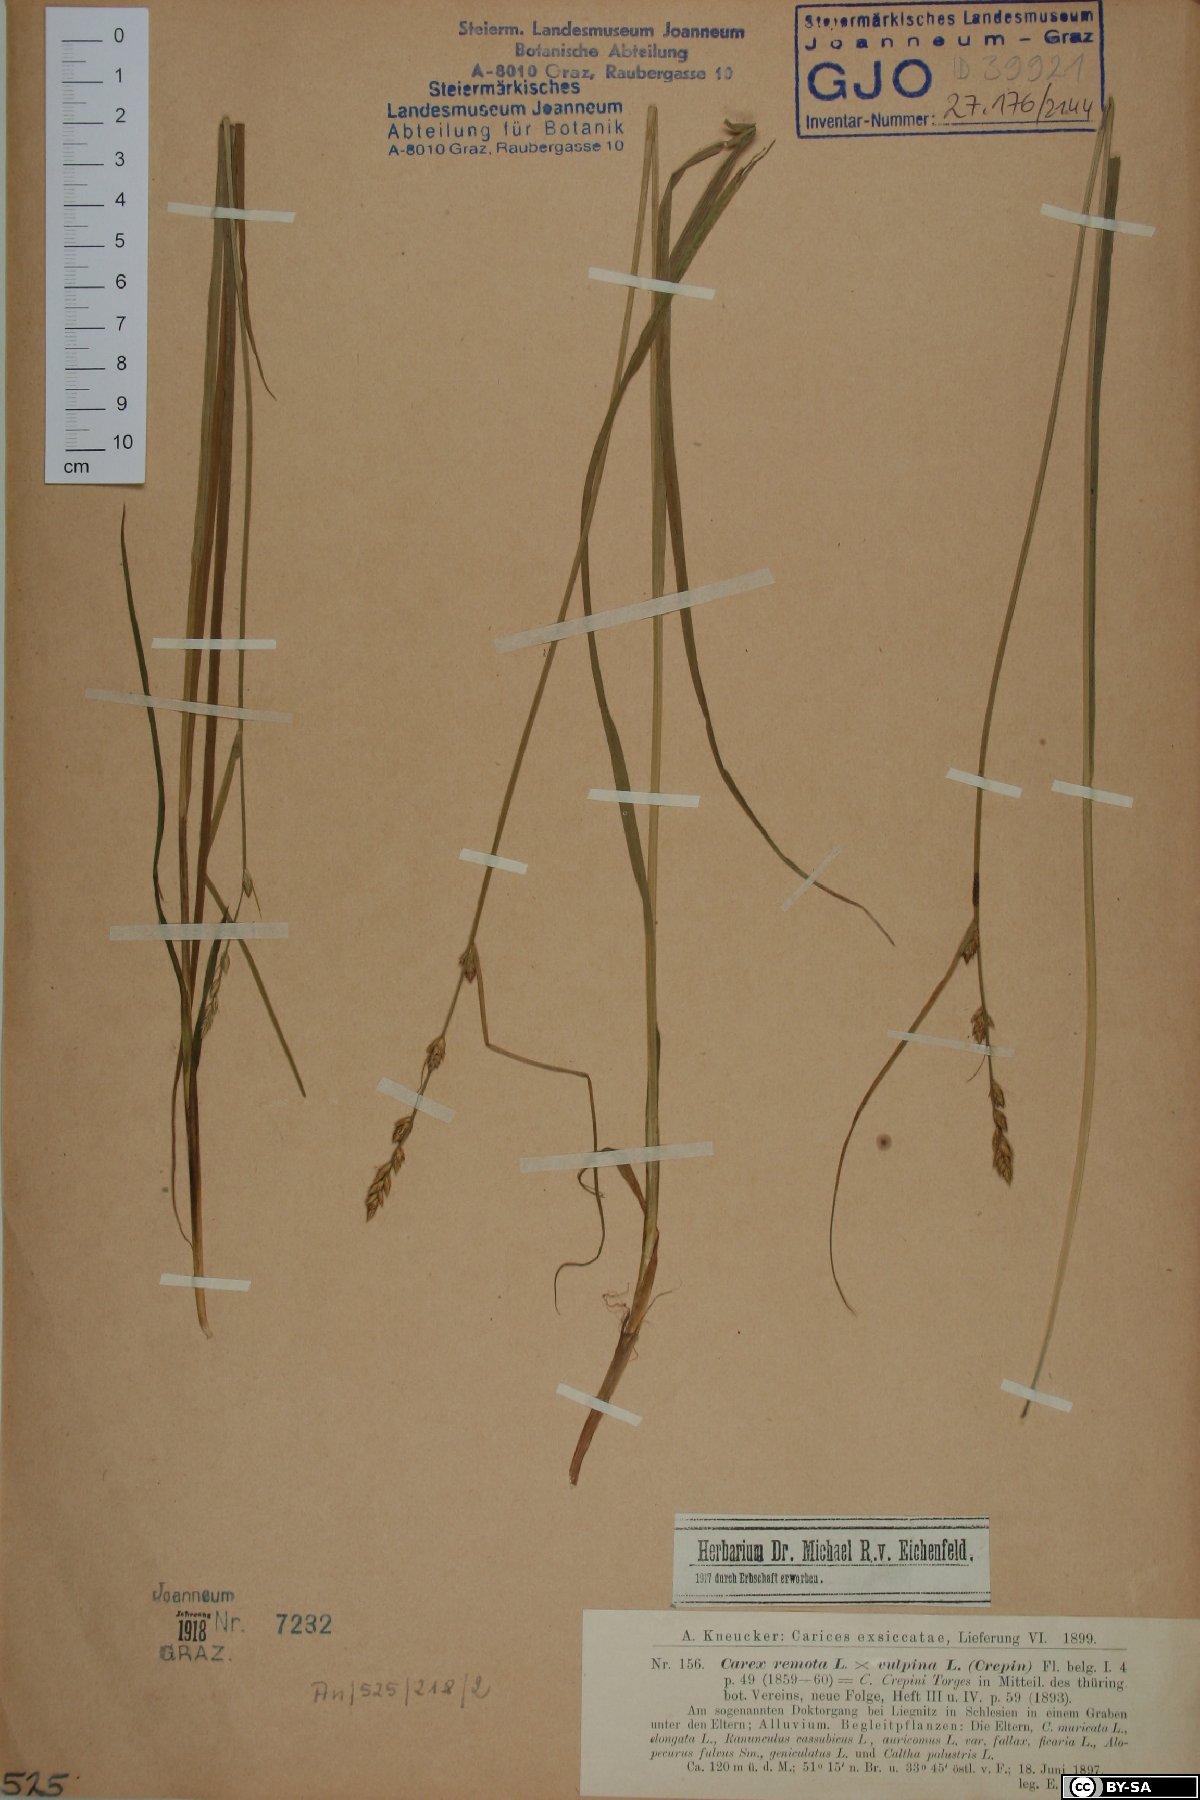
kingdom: Plantae
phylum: Tracheophyta
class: Liliopsida
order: Poales
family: Cyperaceae
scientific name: Cyperaceae
